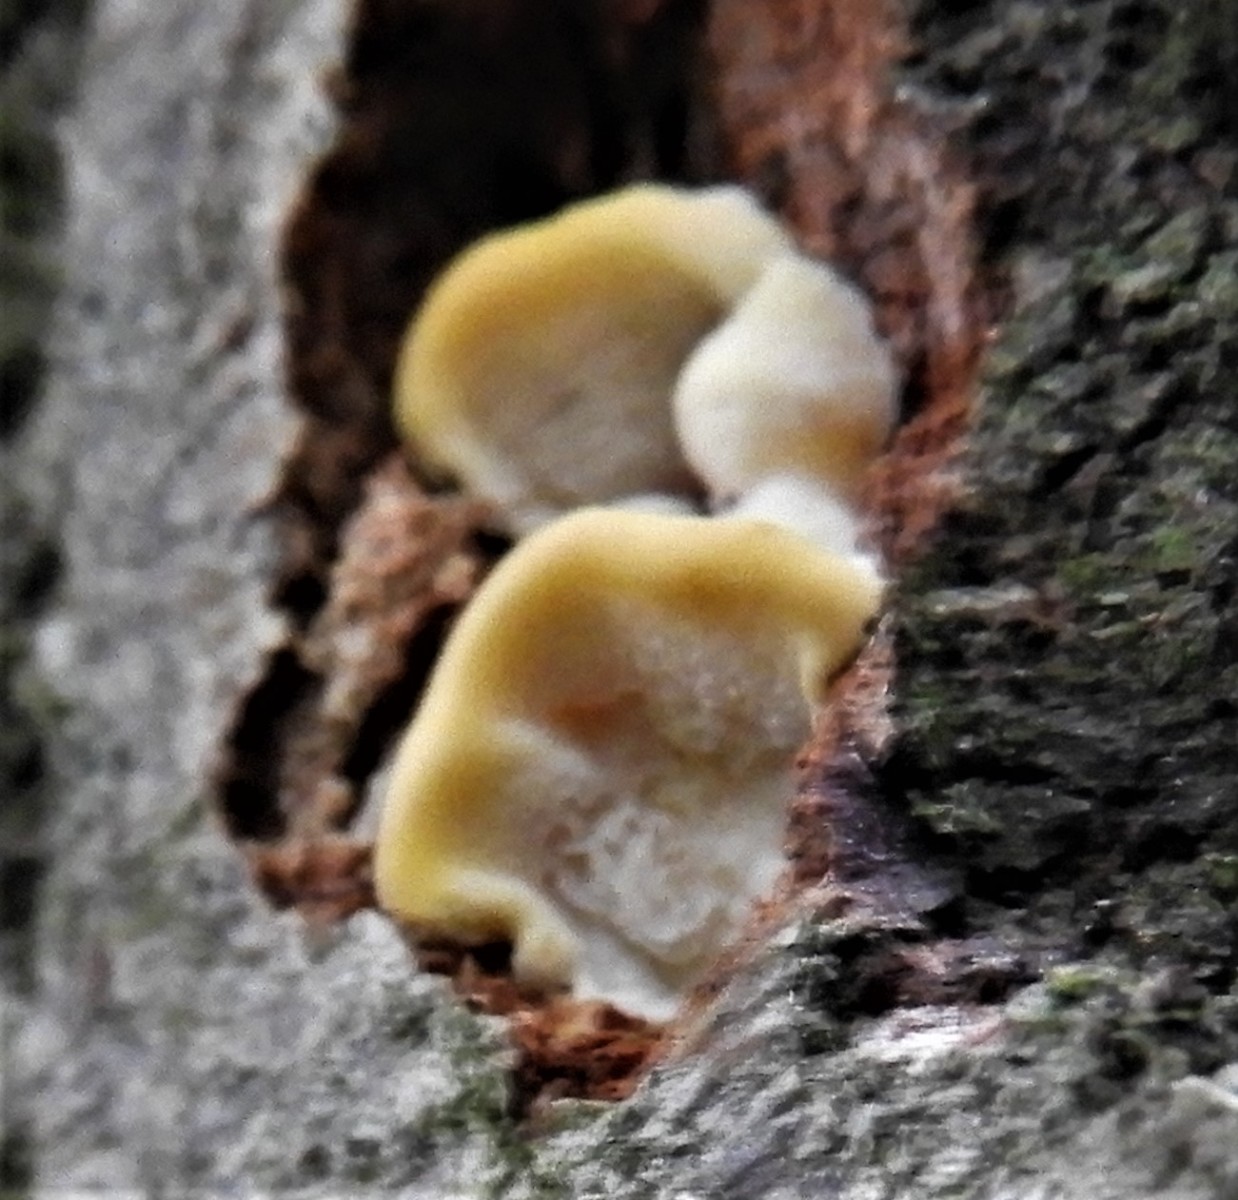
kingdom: Fungi
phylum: Basidiomycota
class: Agaricomycetes
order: Polyporales
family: Steccherinaceae
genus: Antrodiella
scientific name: Antrodiella serpula
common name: gulrandet elastikporesvamp
